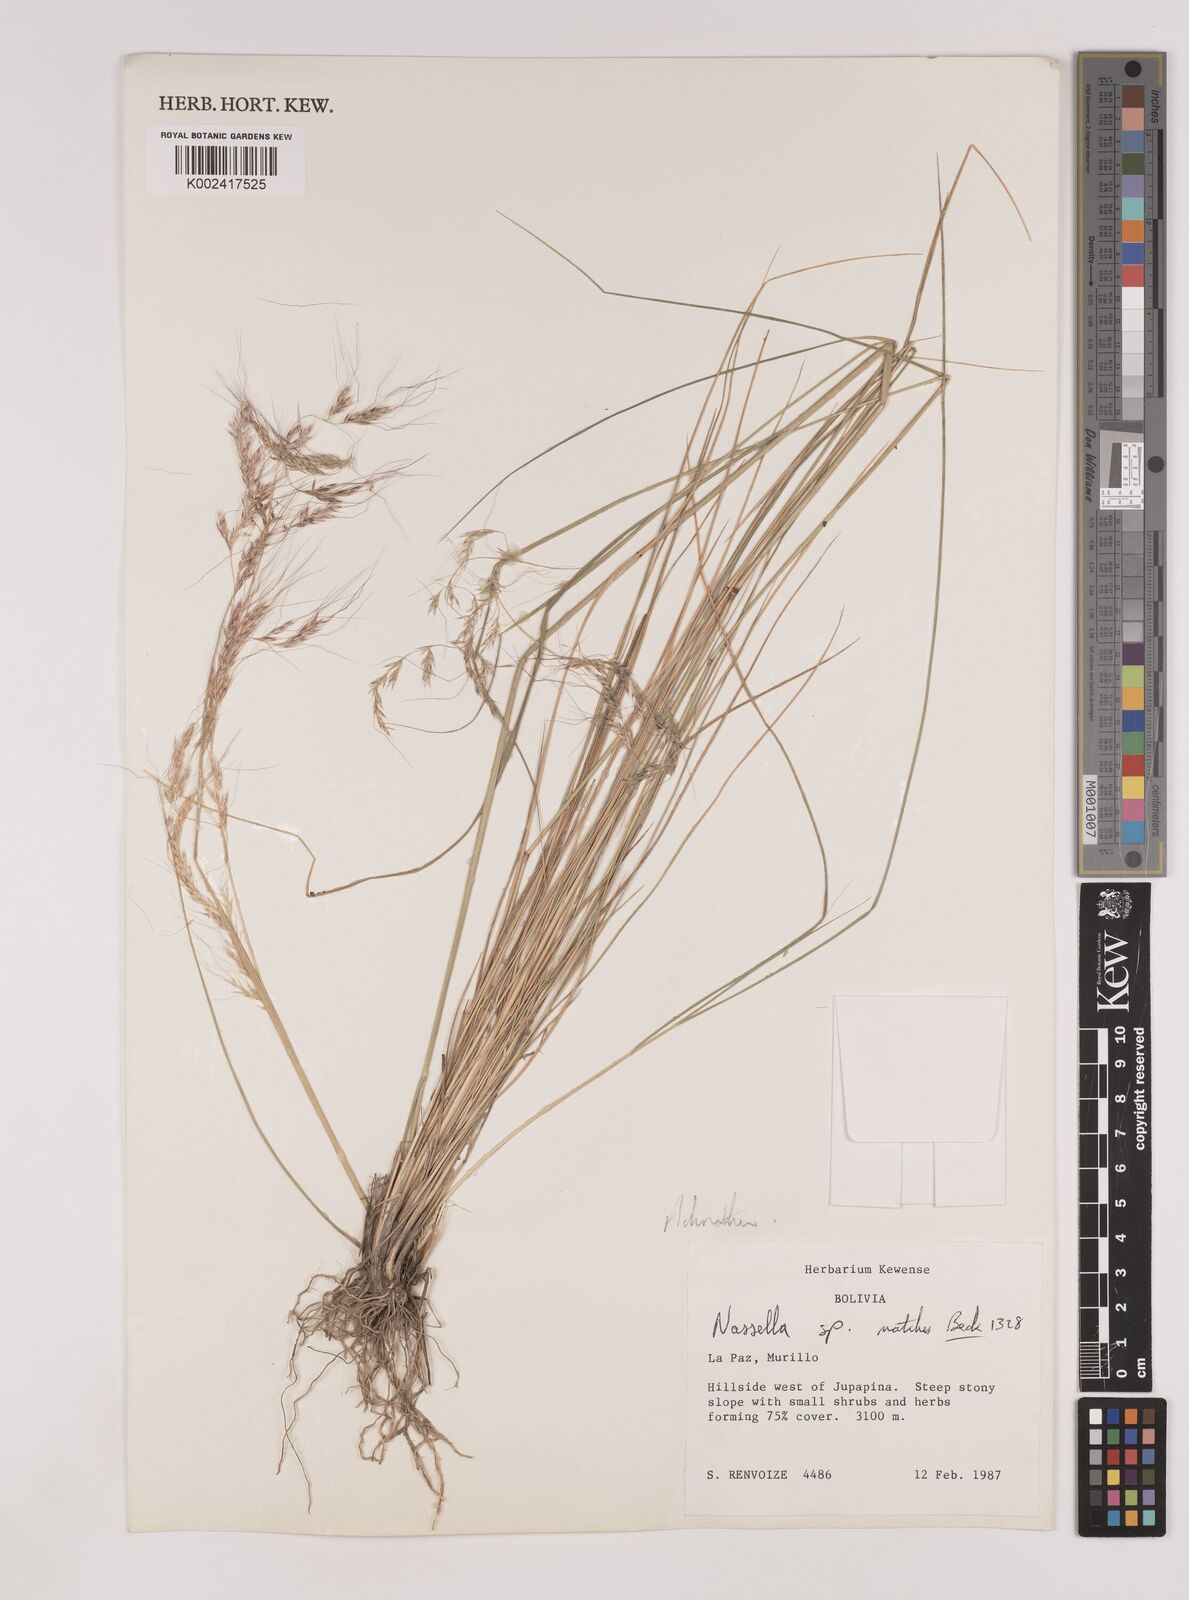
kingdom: Plantae
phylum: Tracheophyta
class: Liliopsida
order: Poales
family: Poaceae
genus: Nassella
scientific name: Nassella pubiflora
